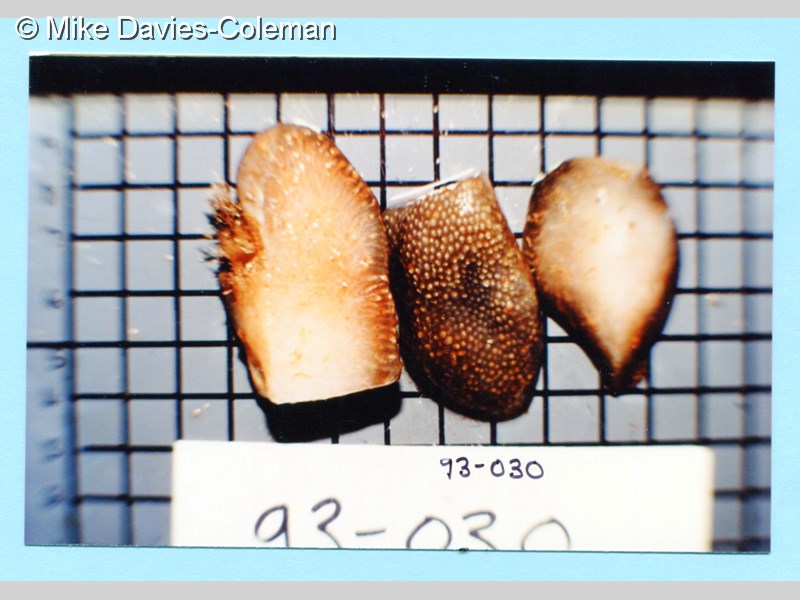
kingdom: Animalia
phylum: Chordata
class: Ascidiacea
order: Aplousobranchia
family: Pseudodistomidae
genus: Pseudodistoma
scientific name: Pseudodistoma
